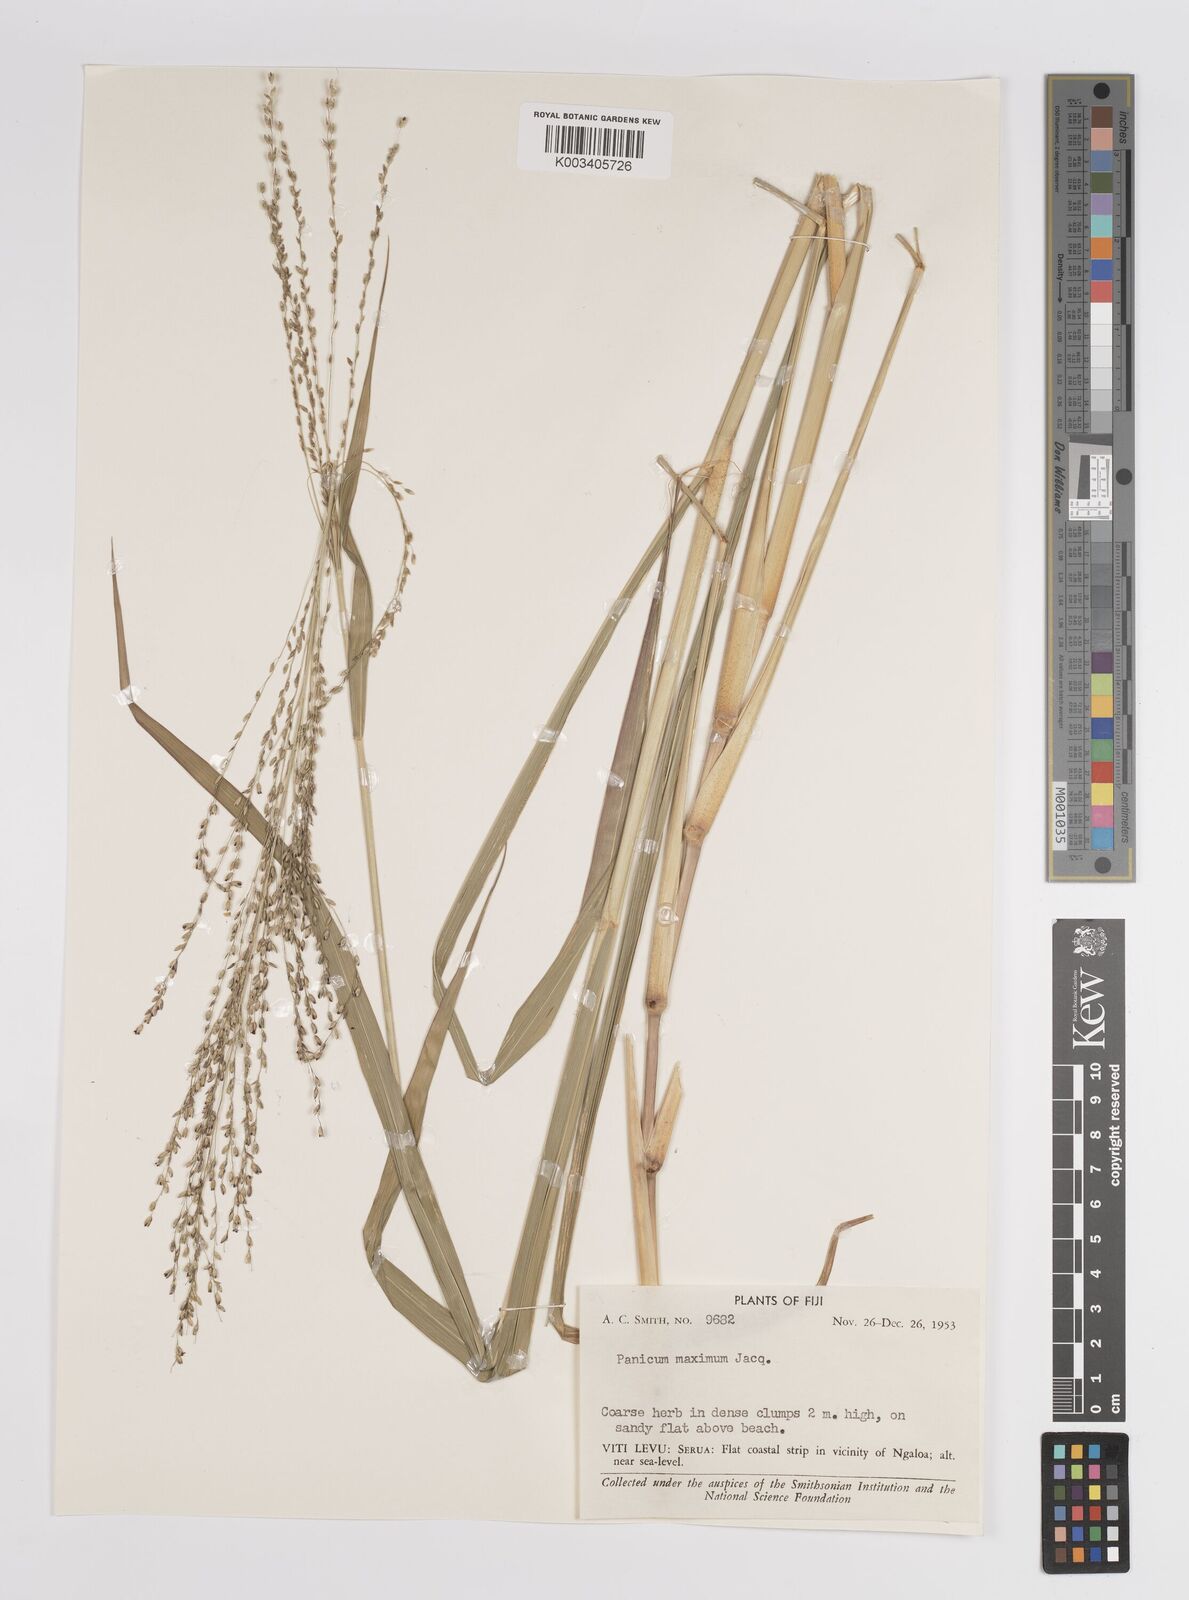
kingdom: Plantae
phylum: Tracheophyta
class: Liliopsida
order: Poales
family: Poaceae
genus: Megathyrsus
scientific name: Megathyrsus maximus
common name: Guineagrass
